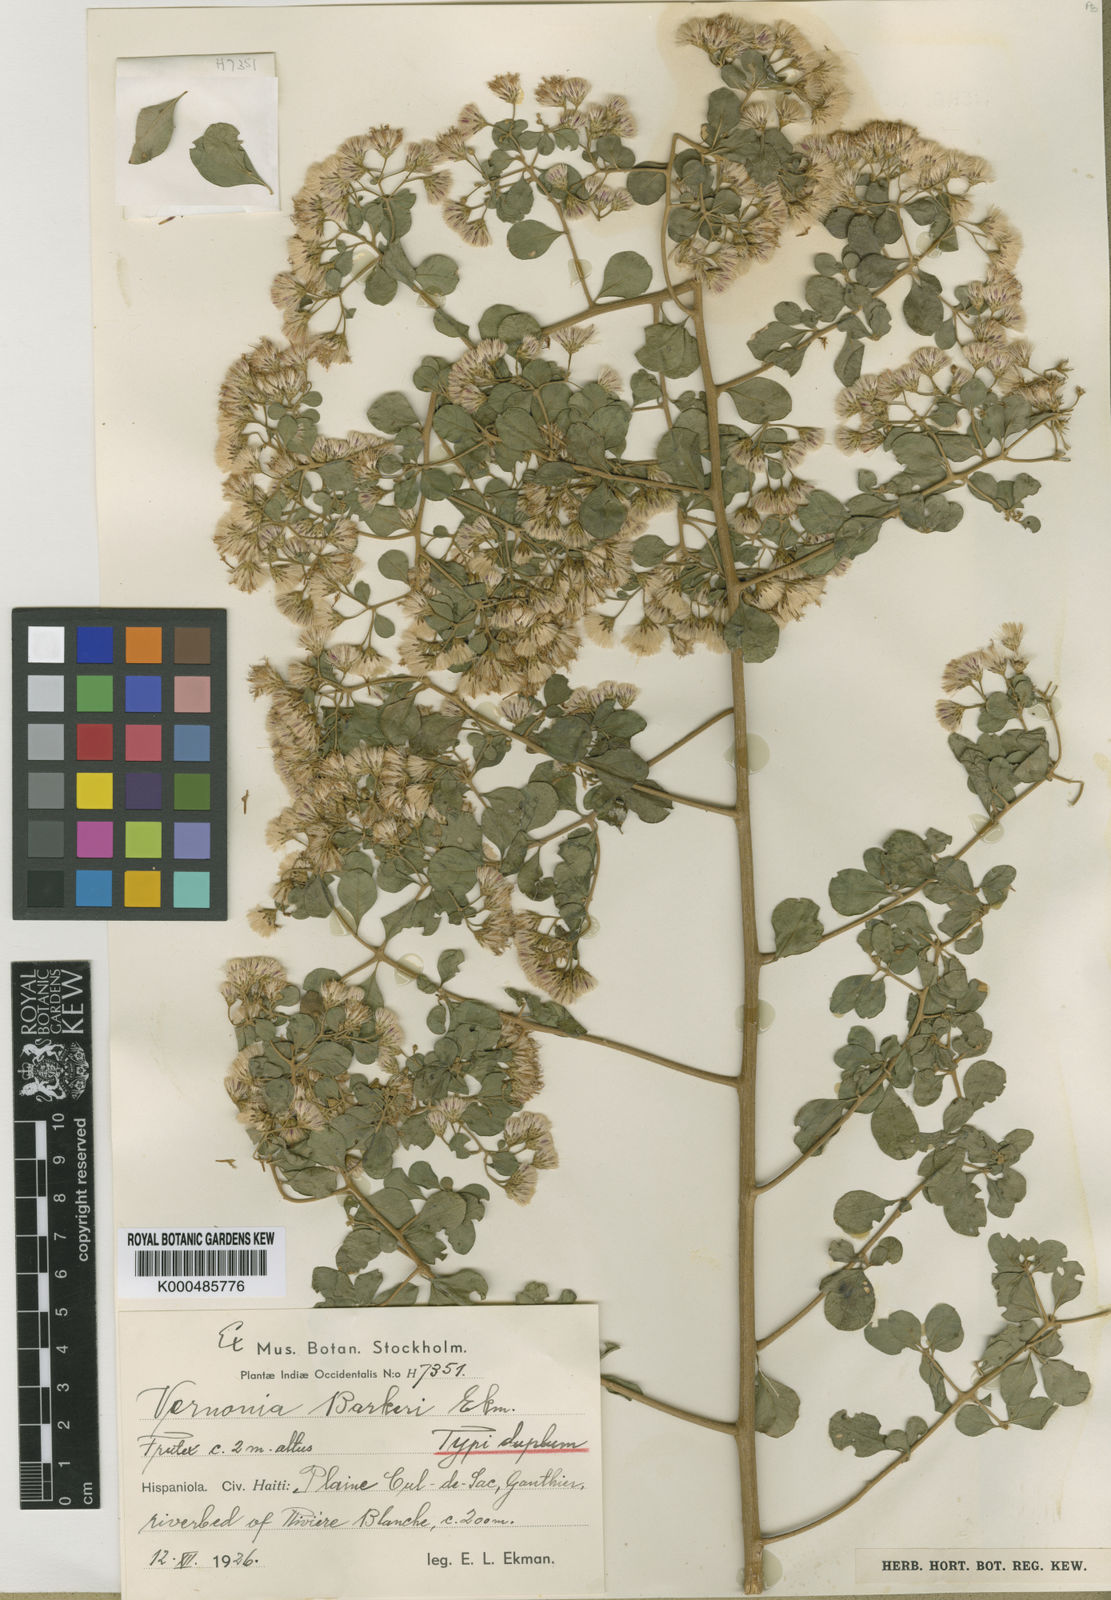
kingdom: Plantae
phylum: Tracheophyta
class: Magnoliopsida
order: Asterales
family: Asteraceae
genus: Vernonanthura
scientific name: Vernonanthura fuertesii
